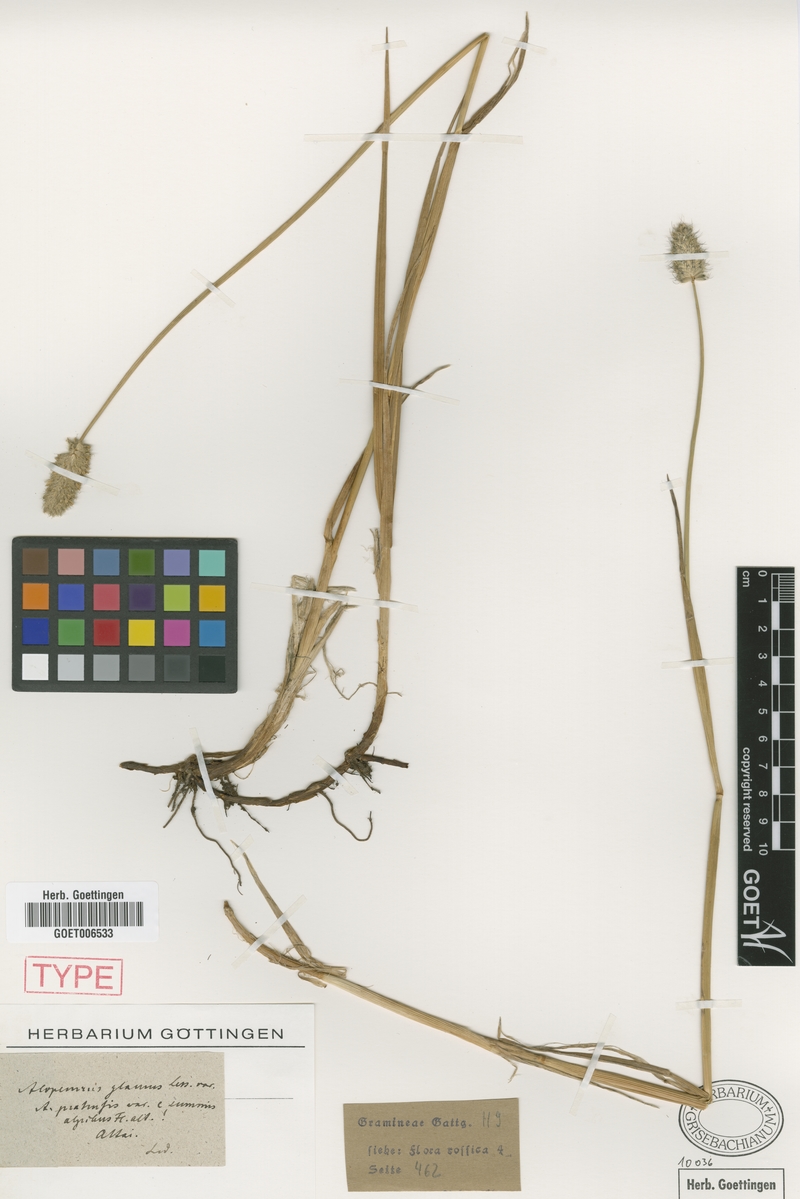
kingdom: Plantae
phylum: Tracheophyta
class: Liliopsida
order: Poales
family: Poaceae
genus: Alopecurus
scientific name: Alopecurus magellanicus
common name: Alpine foxtail
